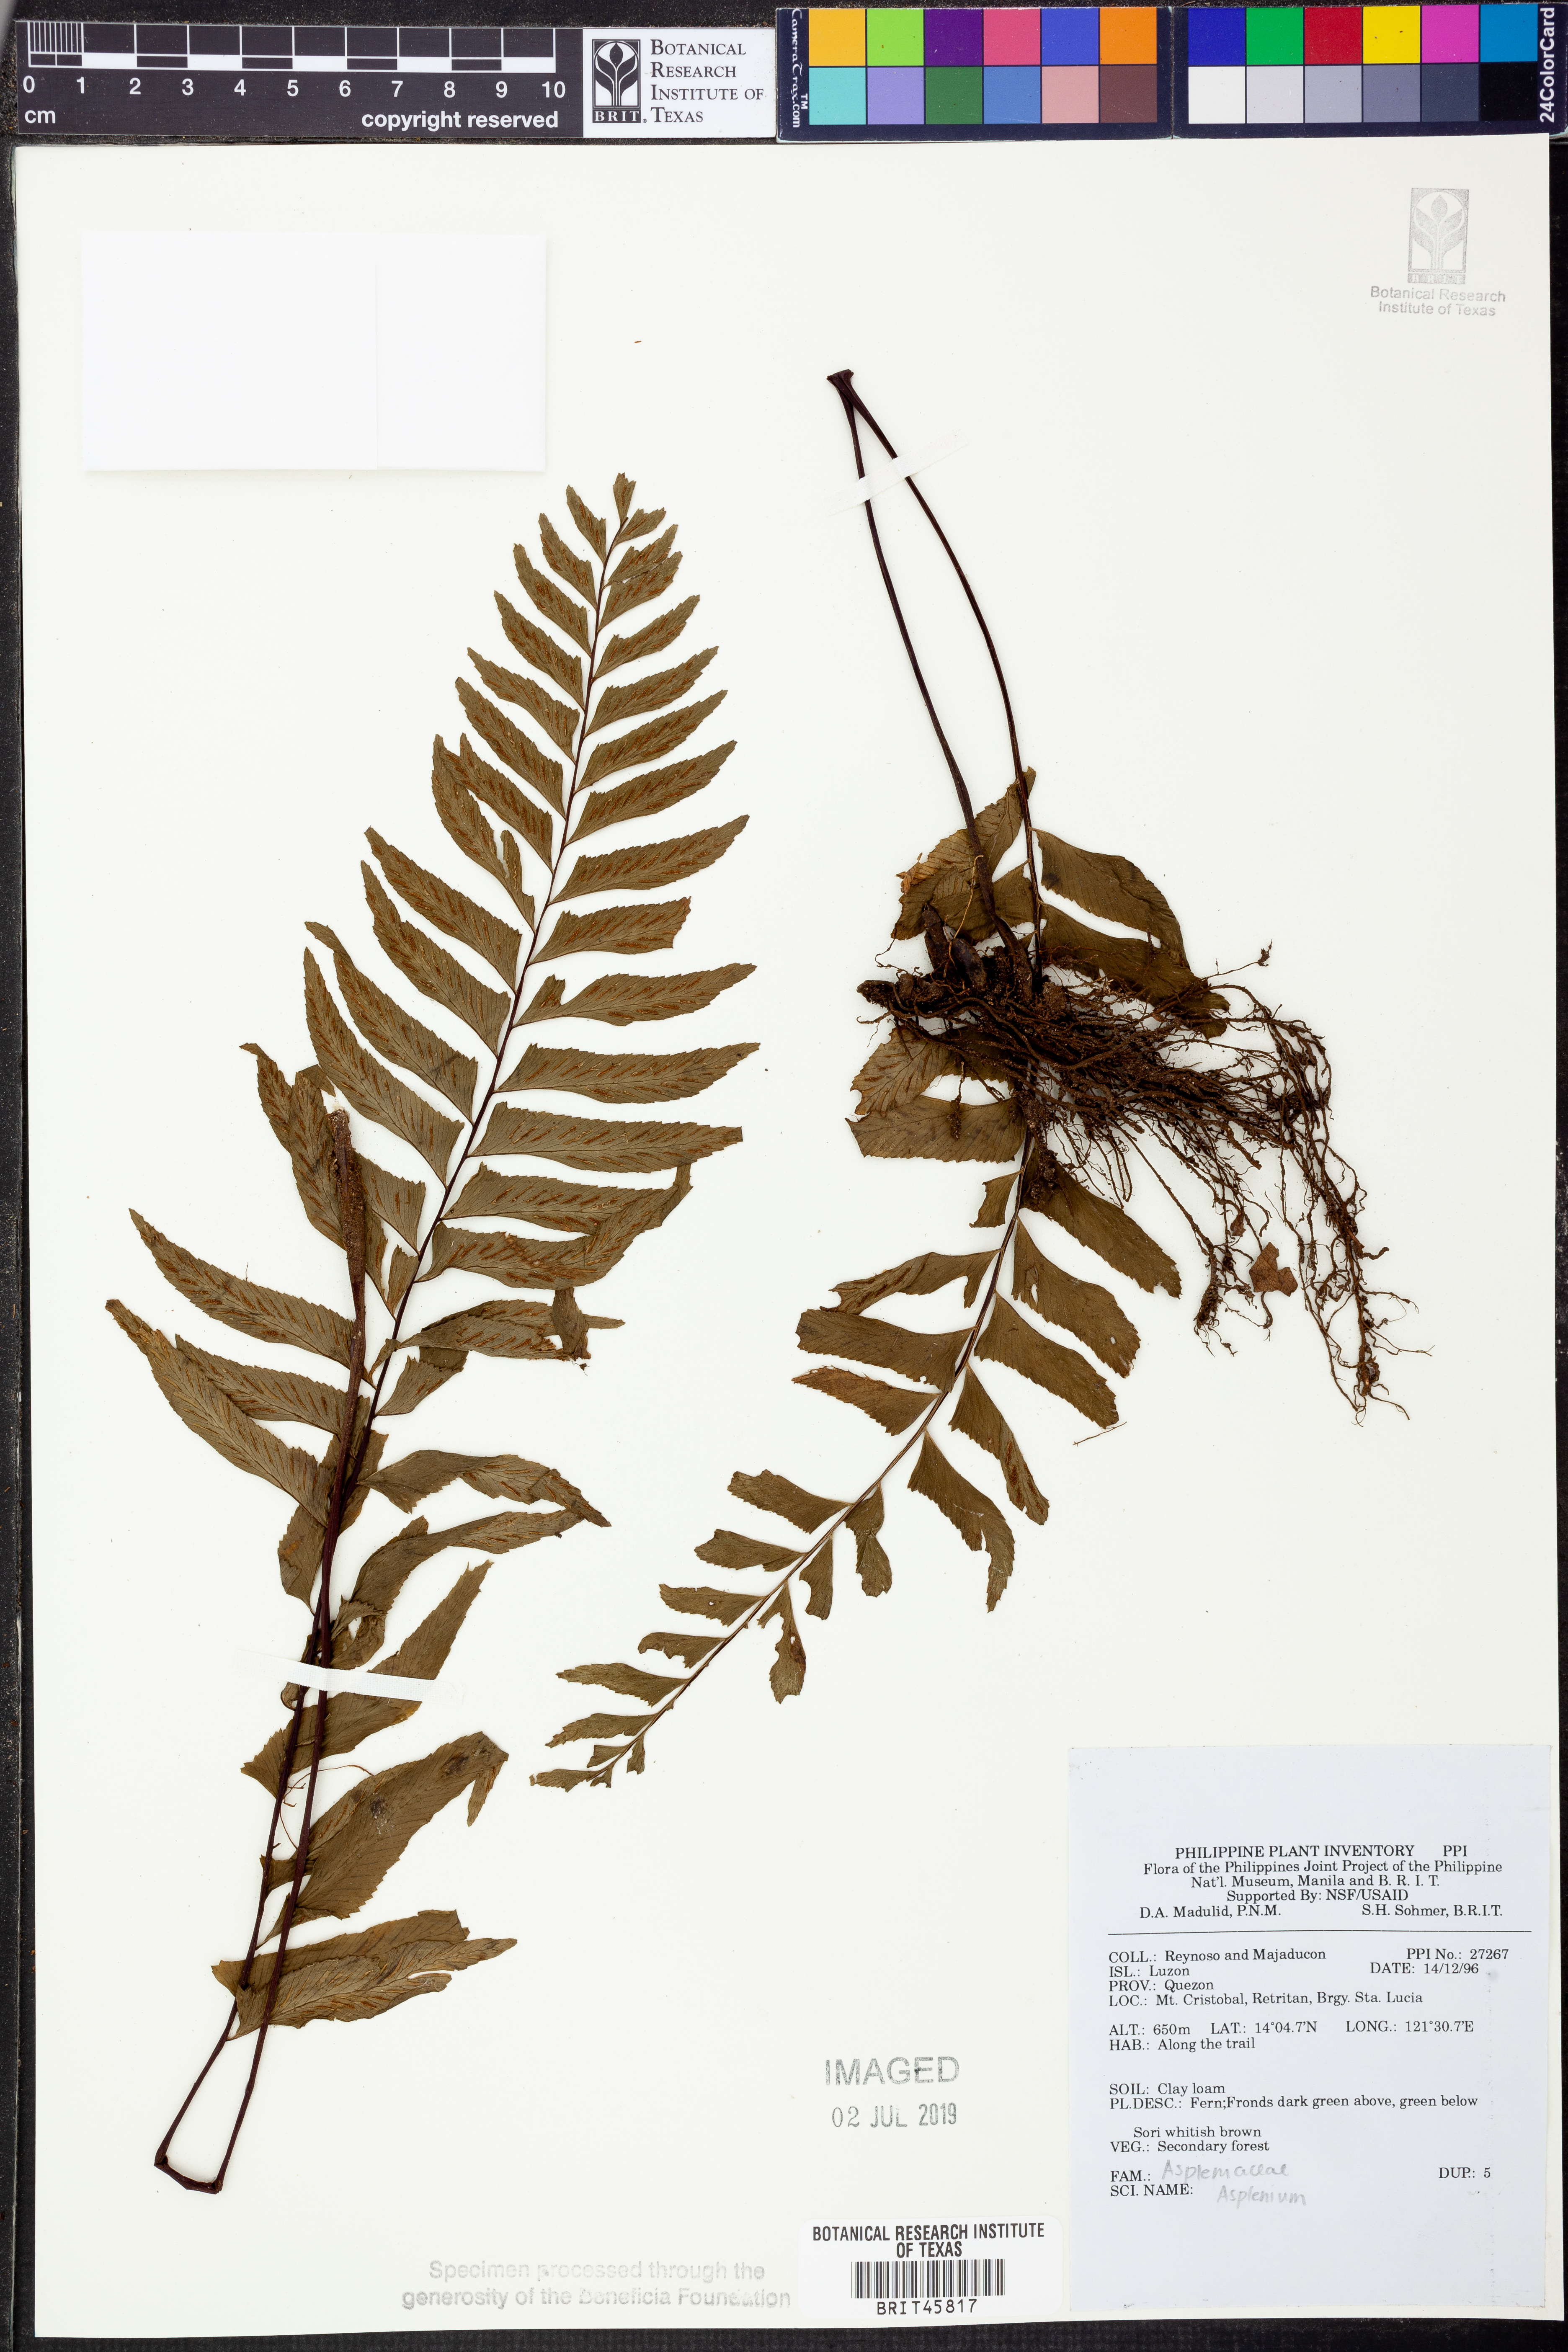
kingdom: Plantae
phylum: Tracheophyta
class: Polypodiopsida
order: Polypodiales
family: Aspleniaceae
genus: Asplenium
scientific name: Asplenium
